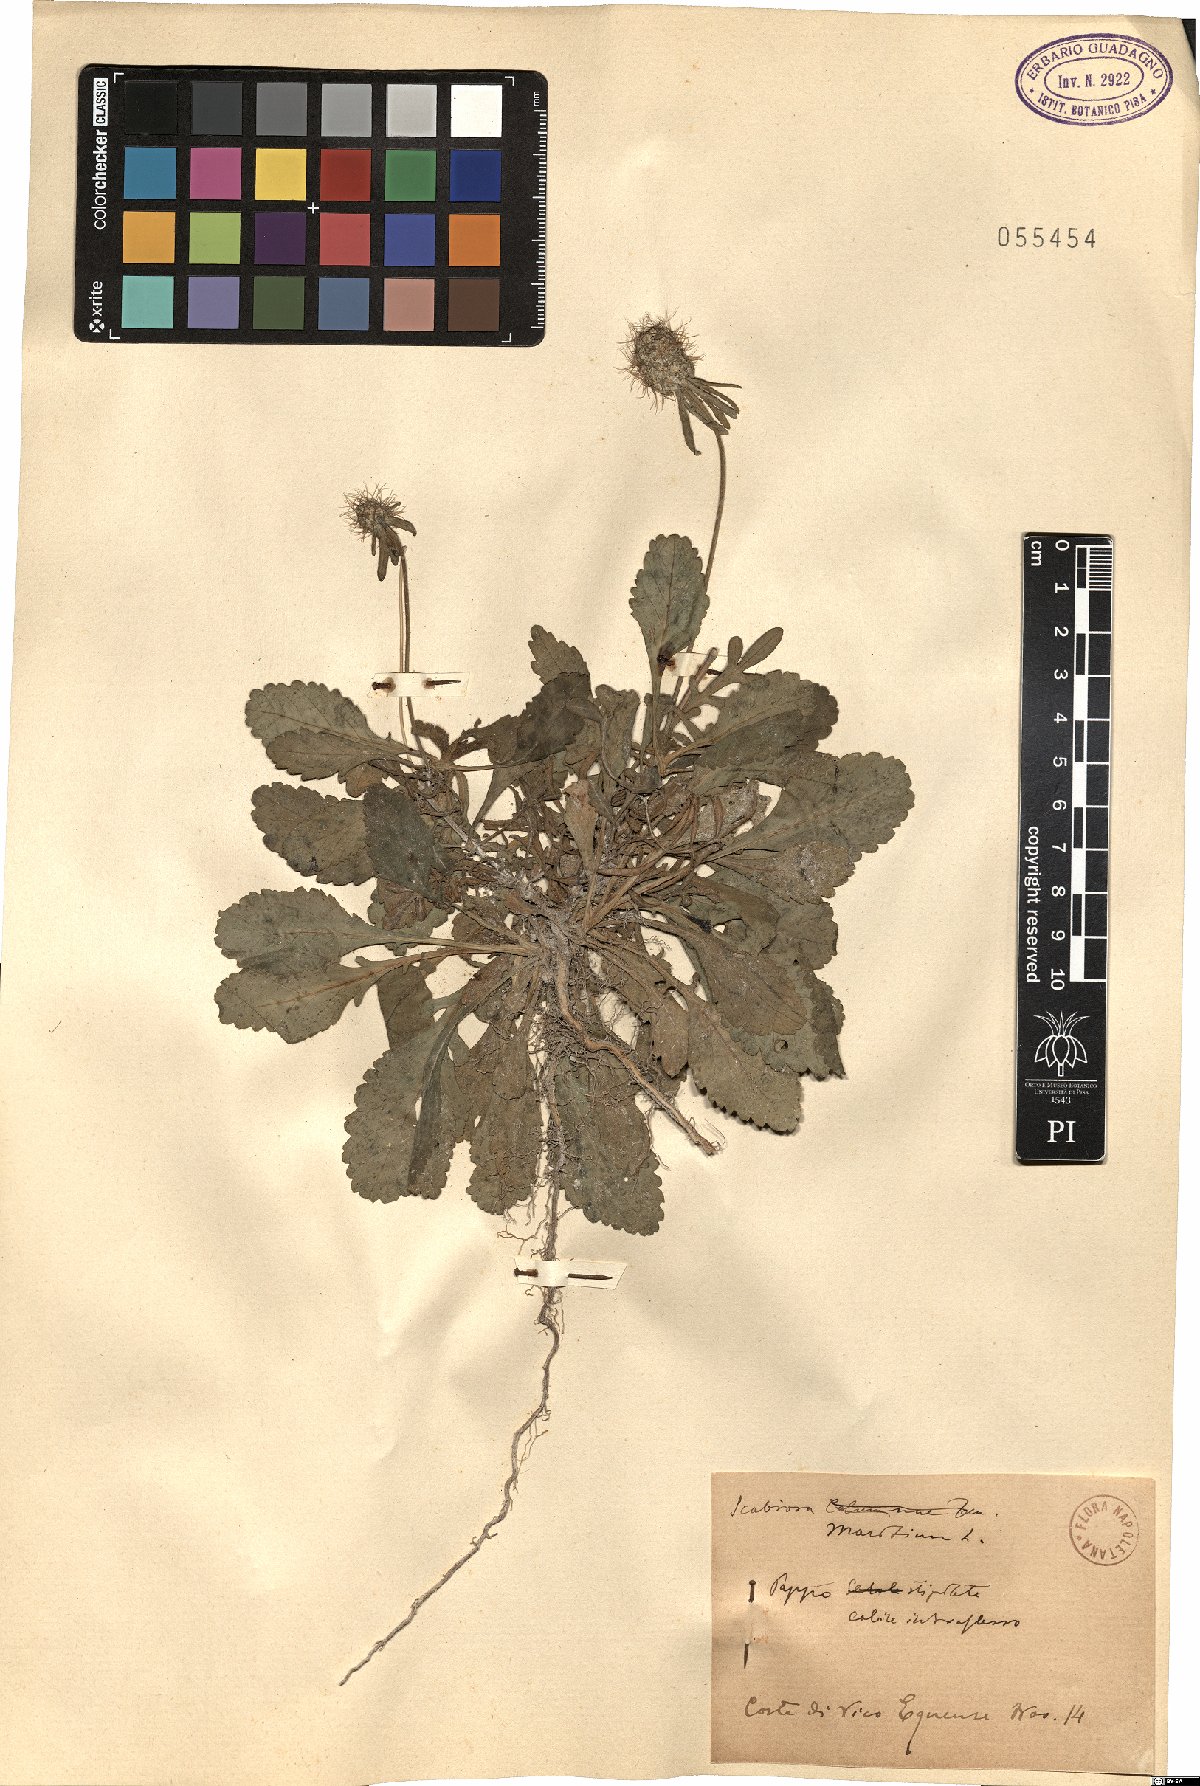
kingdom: Plantae
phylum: Tracheophyta
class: Magnoliopsida
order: Dipsacales
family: Caprifoliaceae
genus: Sixalix
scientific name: Sixalix maritima
